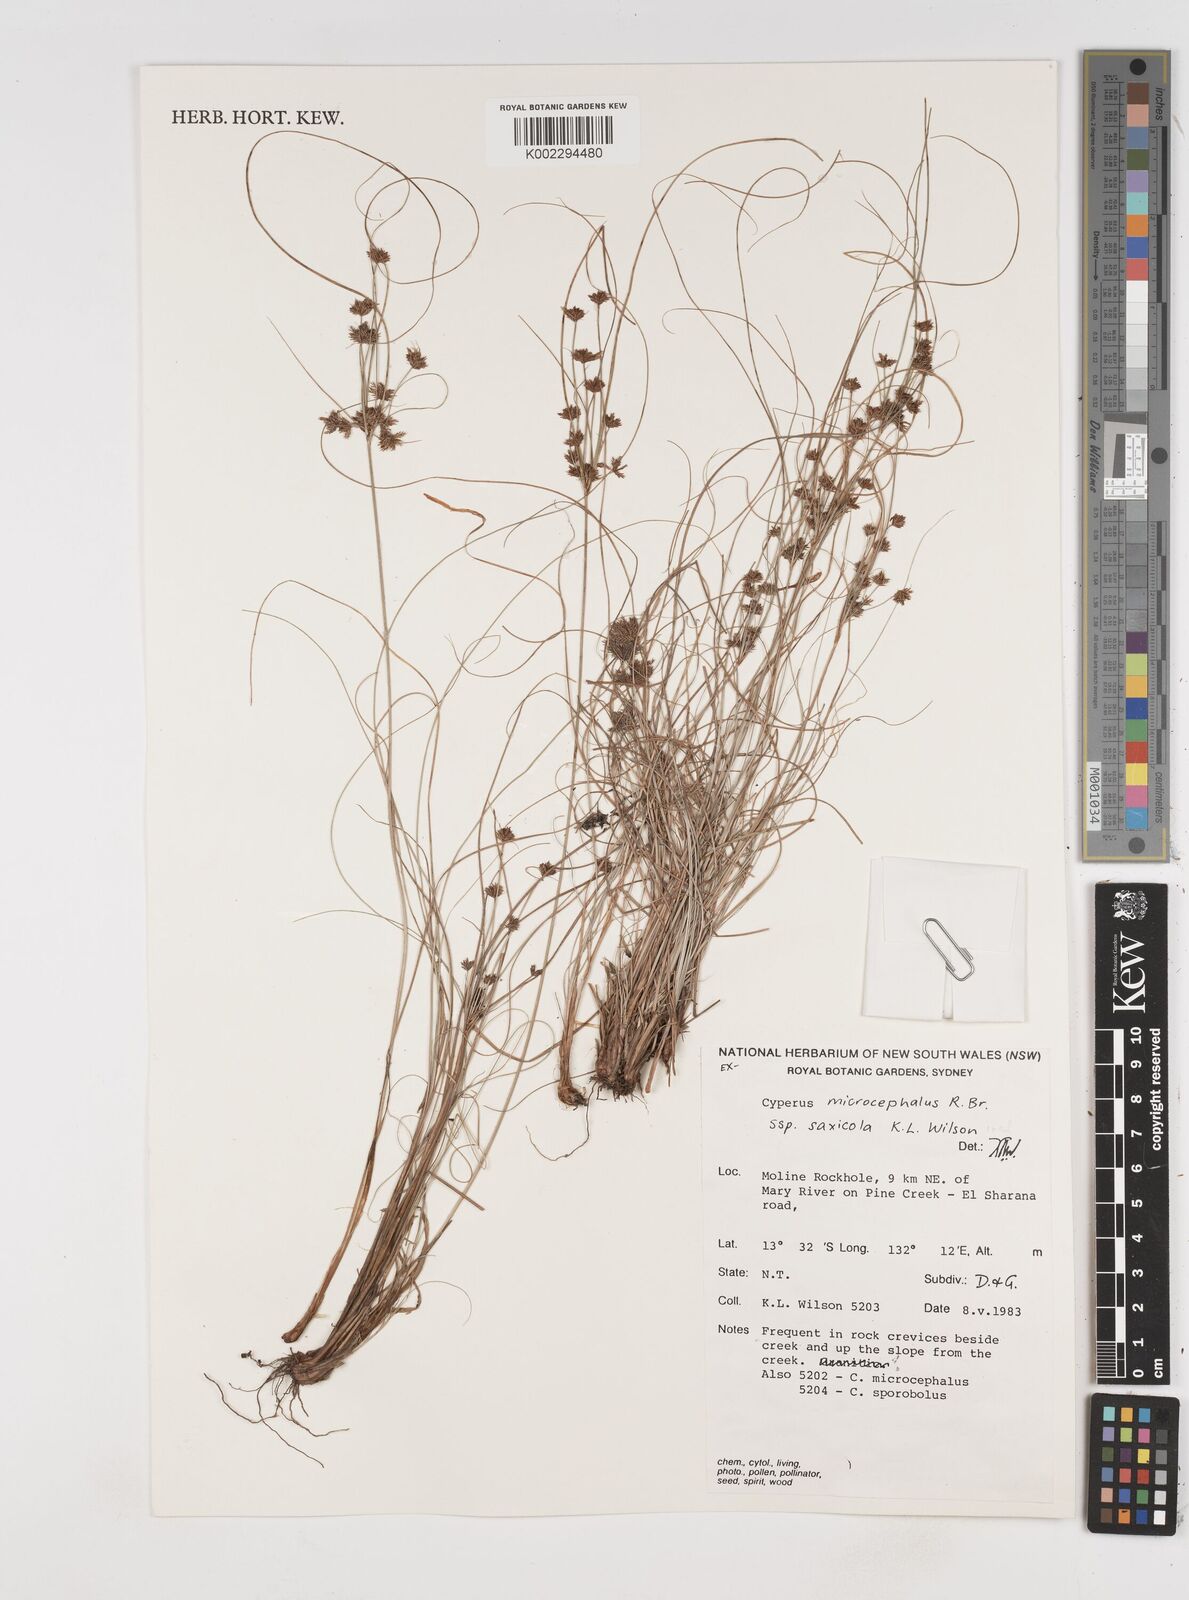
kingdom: Plantae
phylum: Tracheophyta
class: Liliopsida
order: Poales
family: Cyperaceae
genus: Cyperus
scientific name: Cyperus microcephalus
